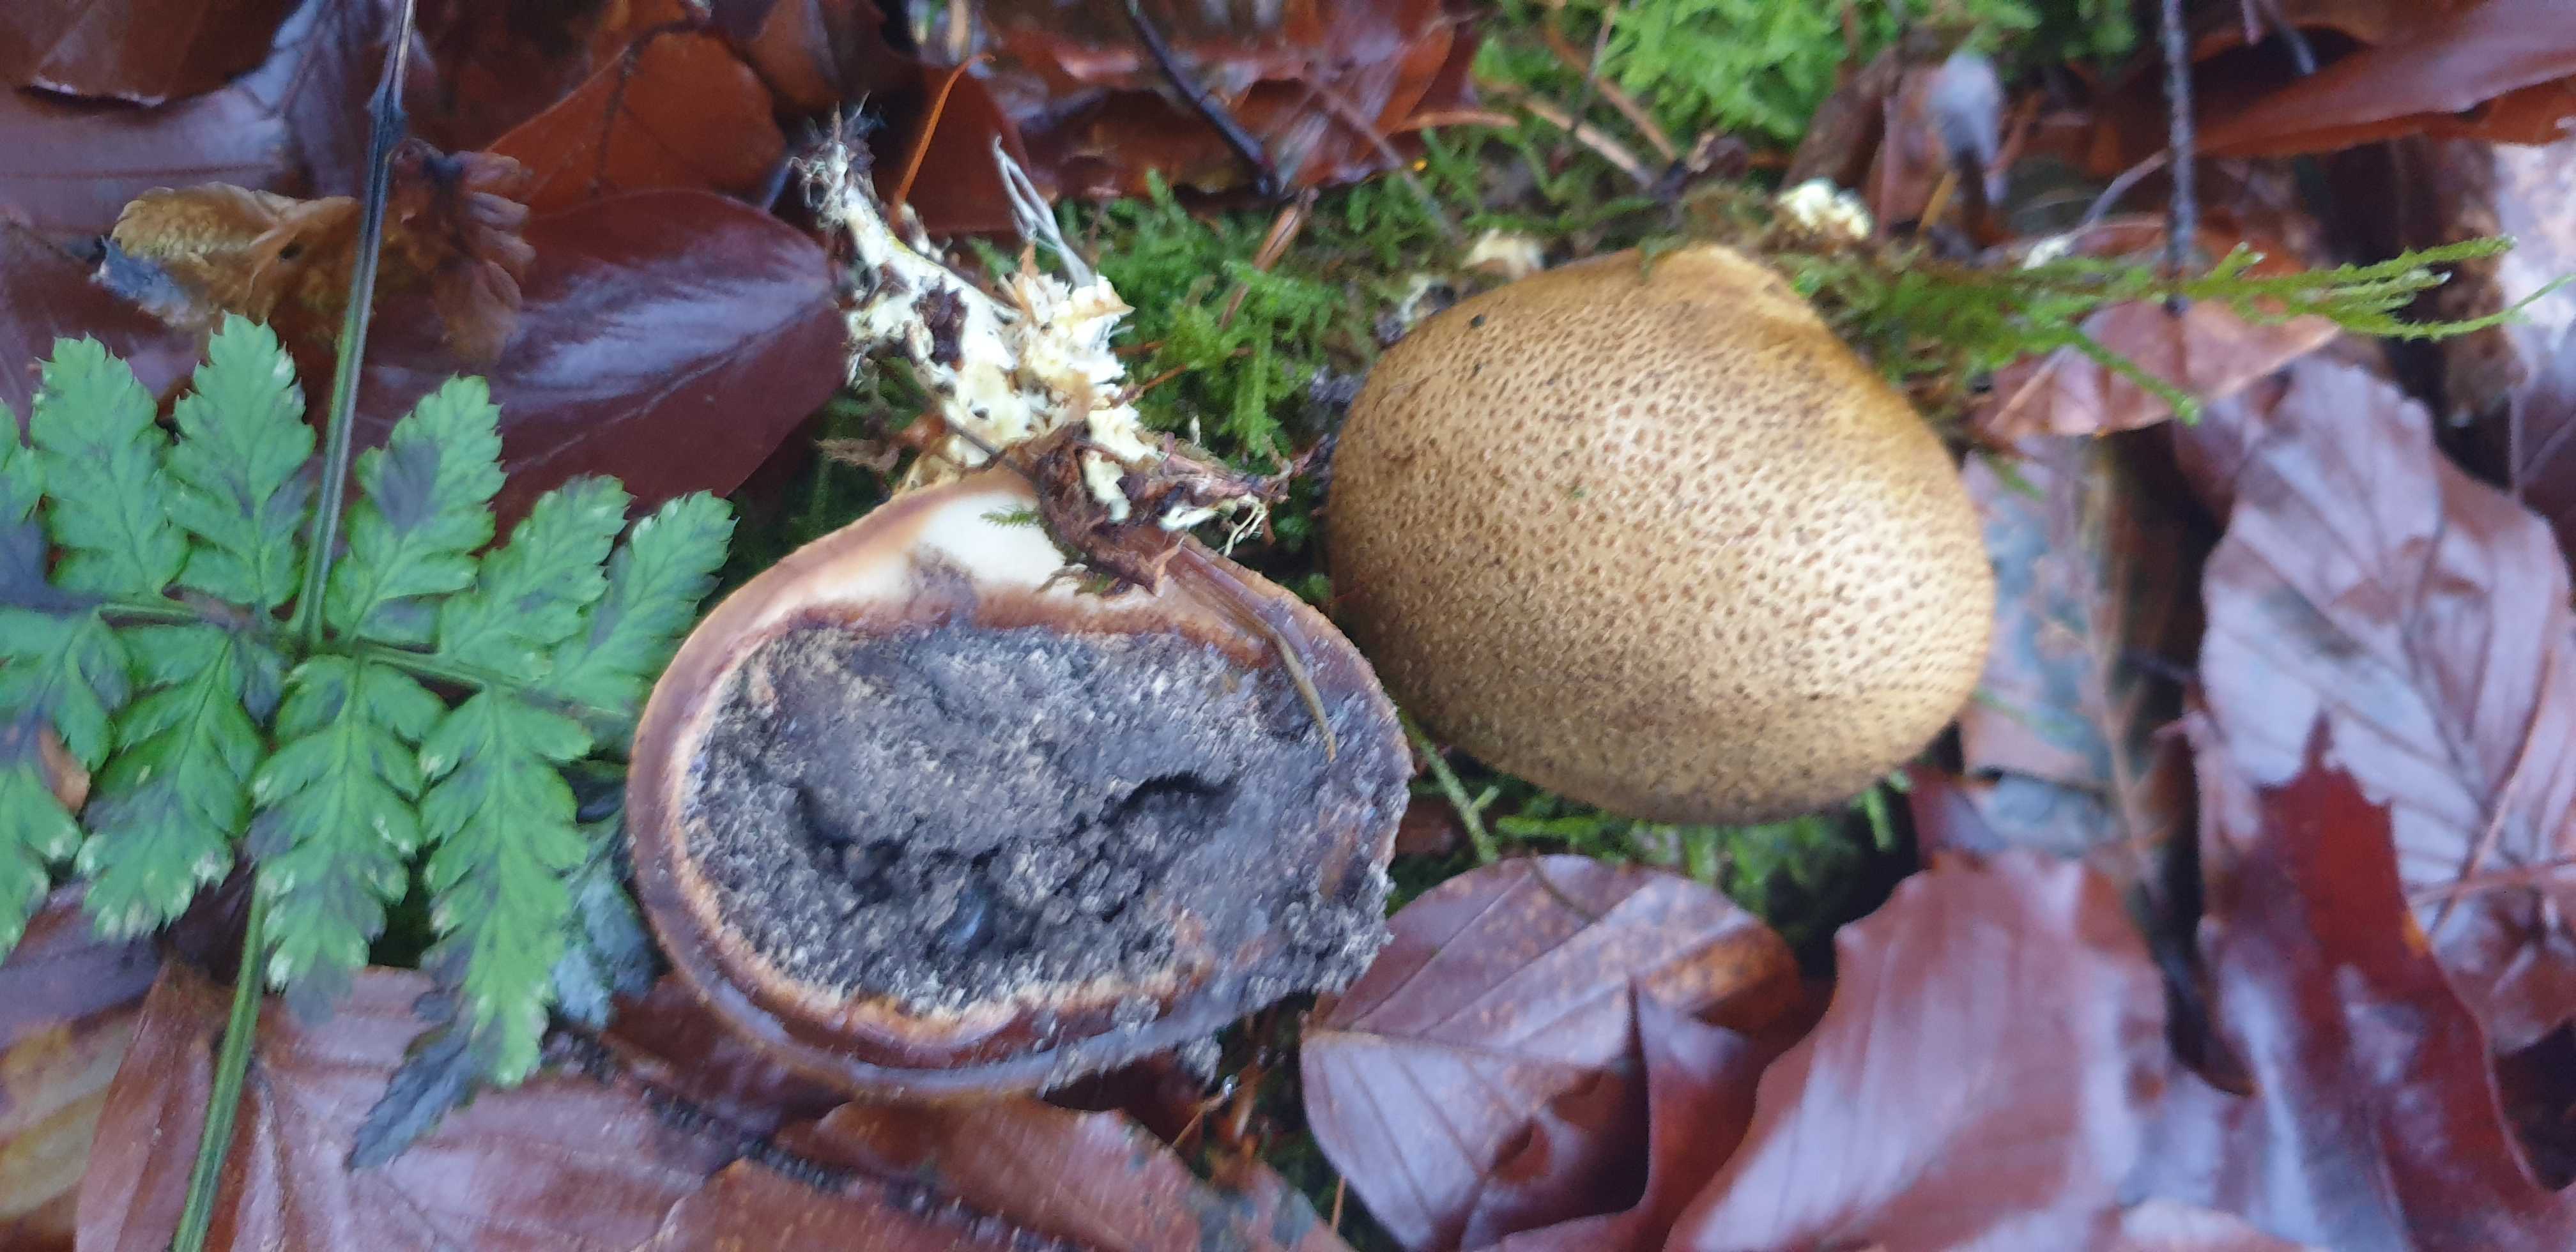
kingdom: Fungi
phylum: Basidiomycota
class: Agaricomycetes
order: Boletales
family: Sclerodermataceae
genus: Scleroderma
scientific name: Scleroderma citrinum
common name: almindelig bruskbold
